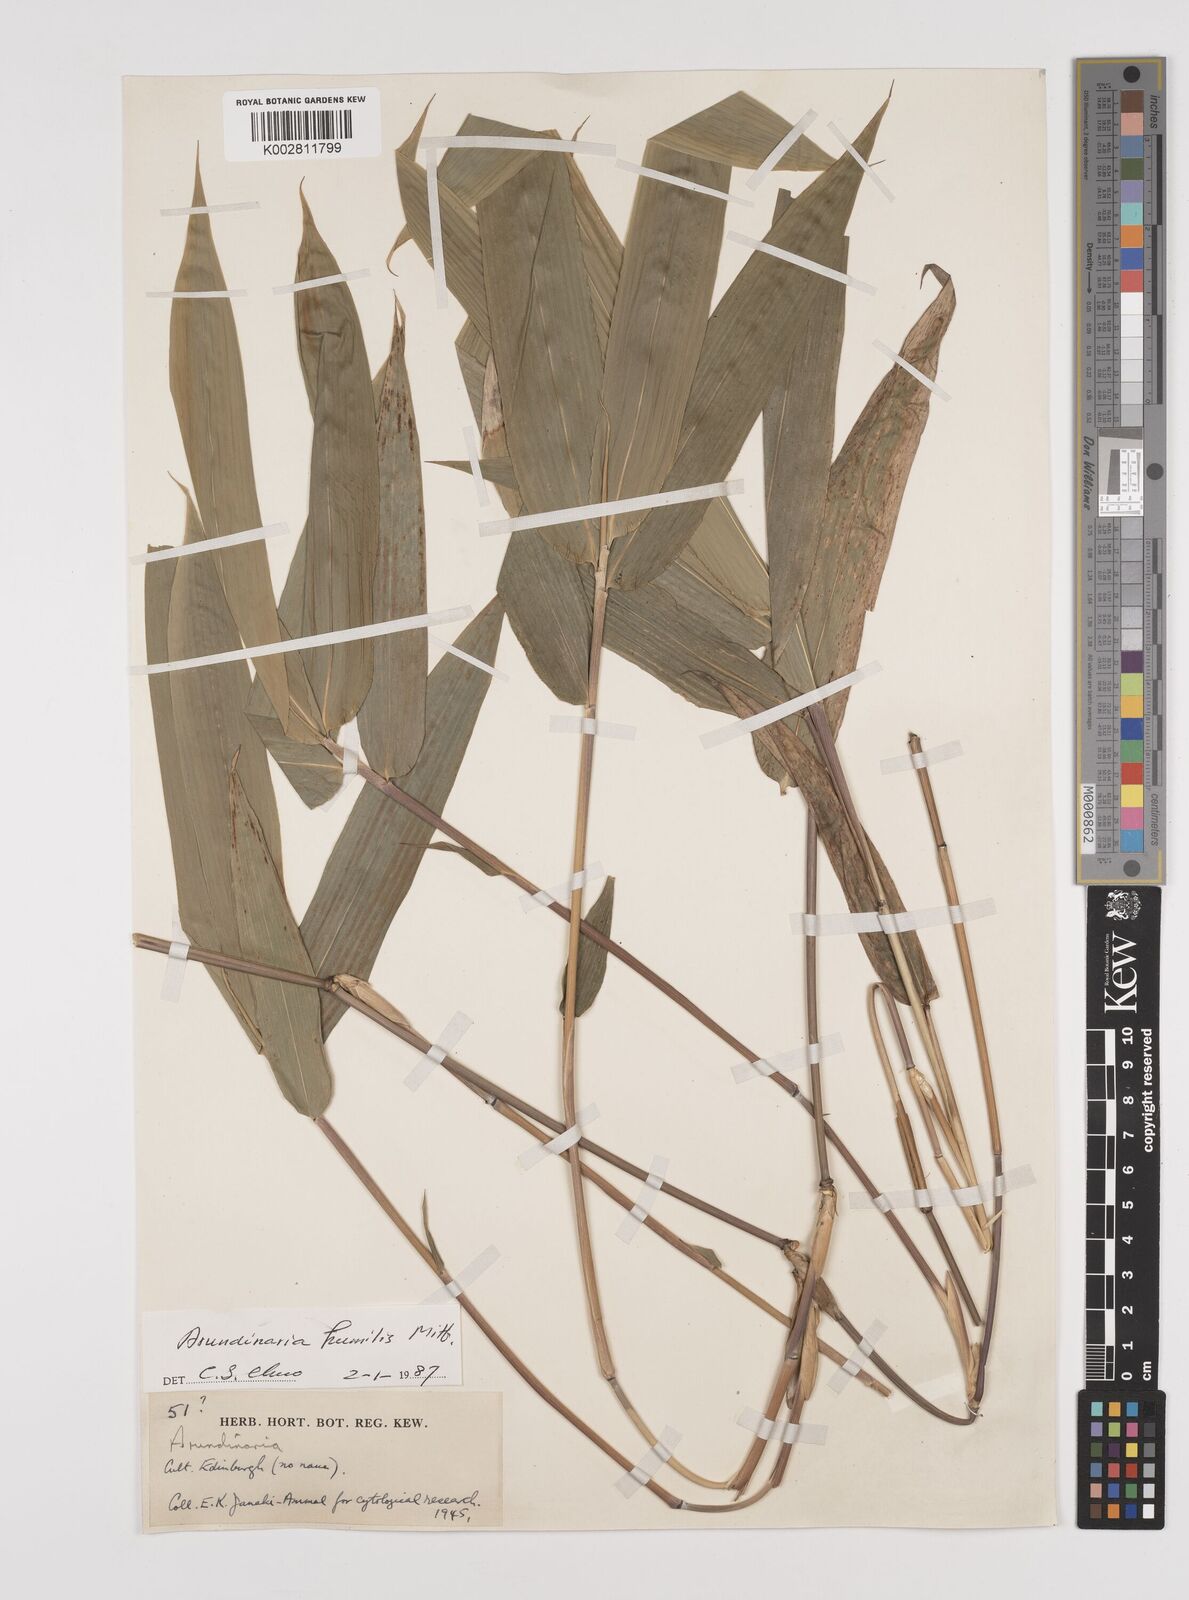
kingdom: Plantae
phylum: Tracheophyta
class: Liliopsida
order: Poales
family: Poaceae
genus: Pseudosasa
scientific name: Pseudosasa humilis
